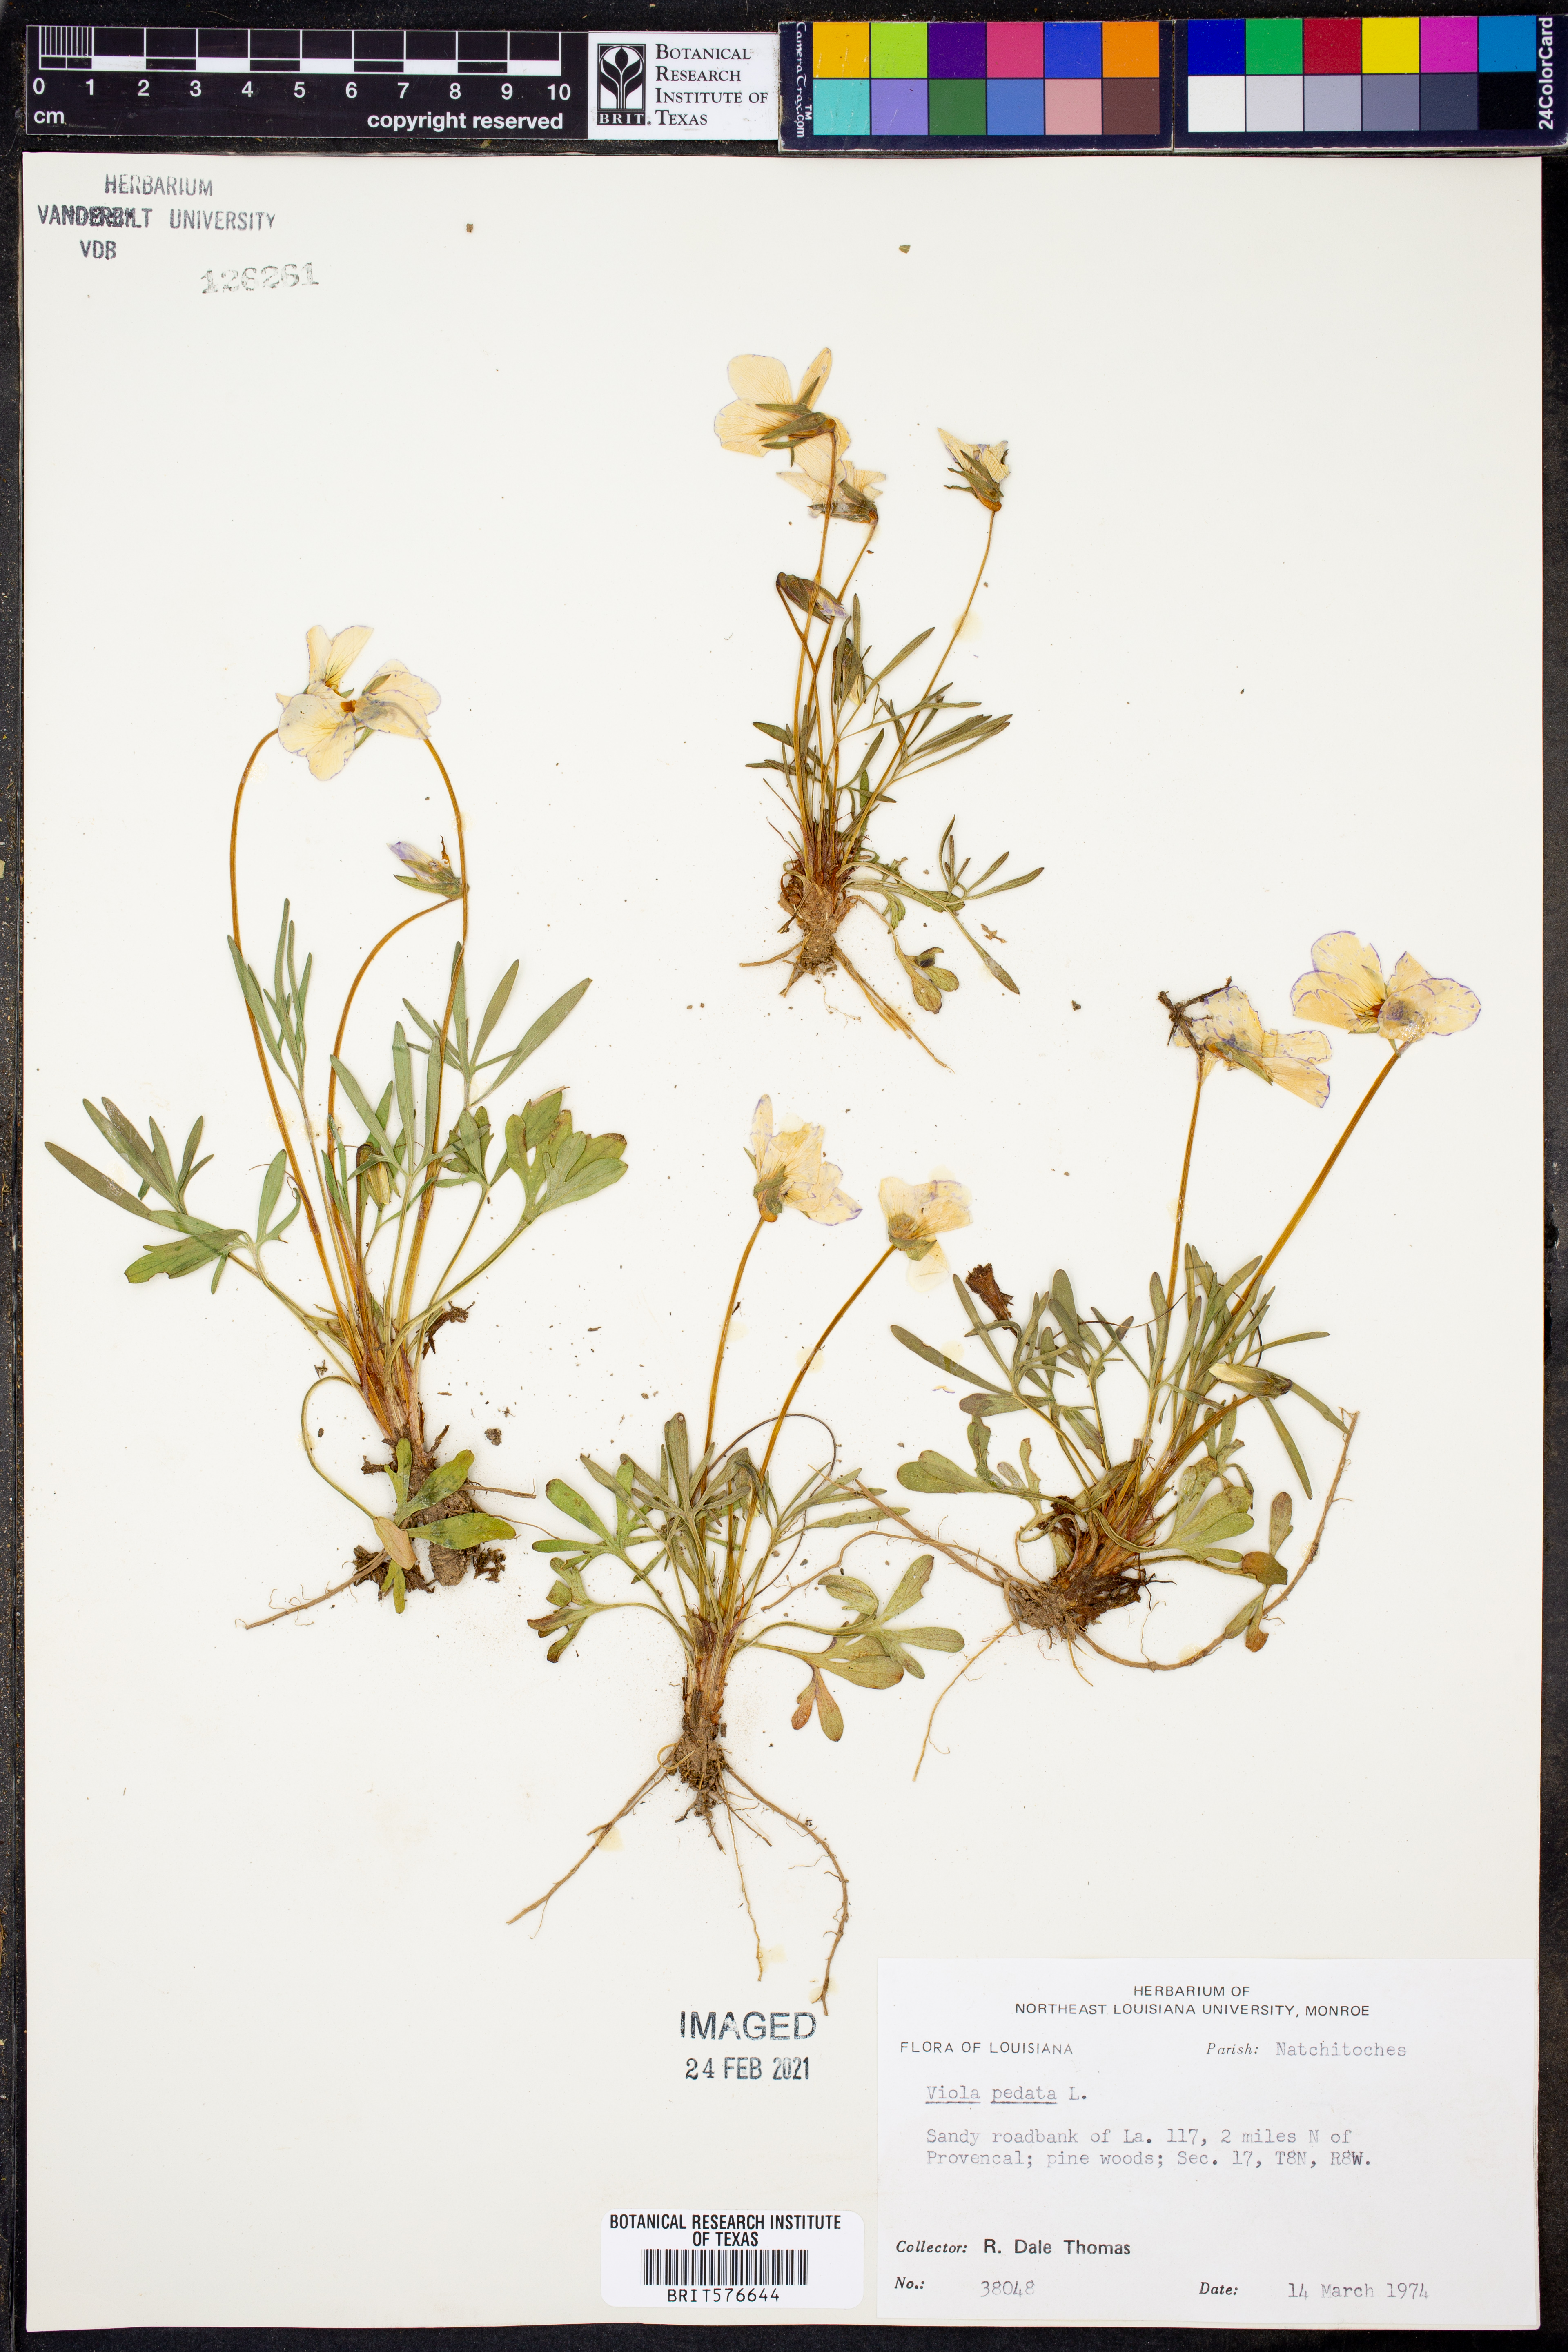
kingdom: Plantae
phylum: Tracheophyta
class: Magnoliopsida
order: Malpighiales
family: Violaceae
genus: Viola
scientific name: Viola pedata
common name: Pansy violet
